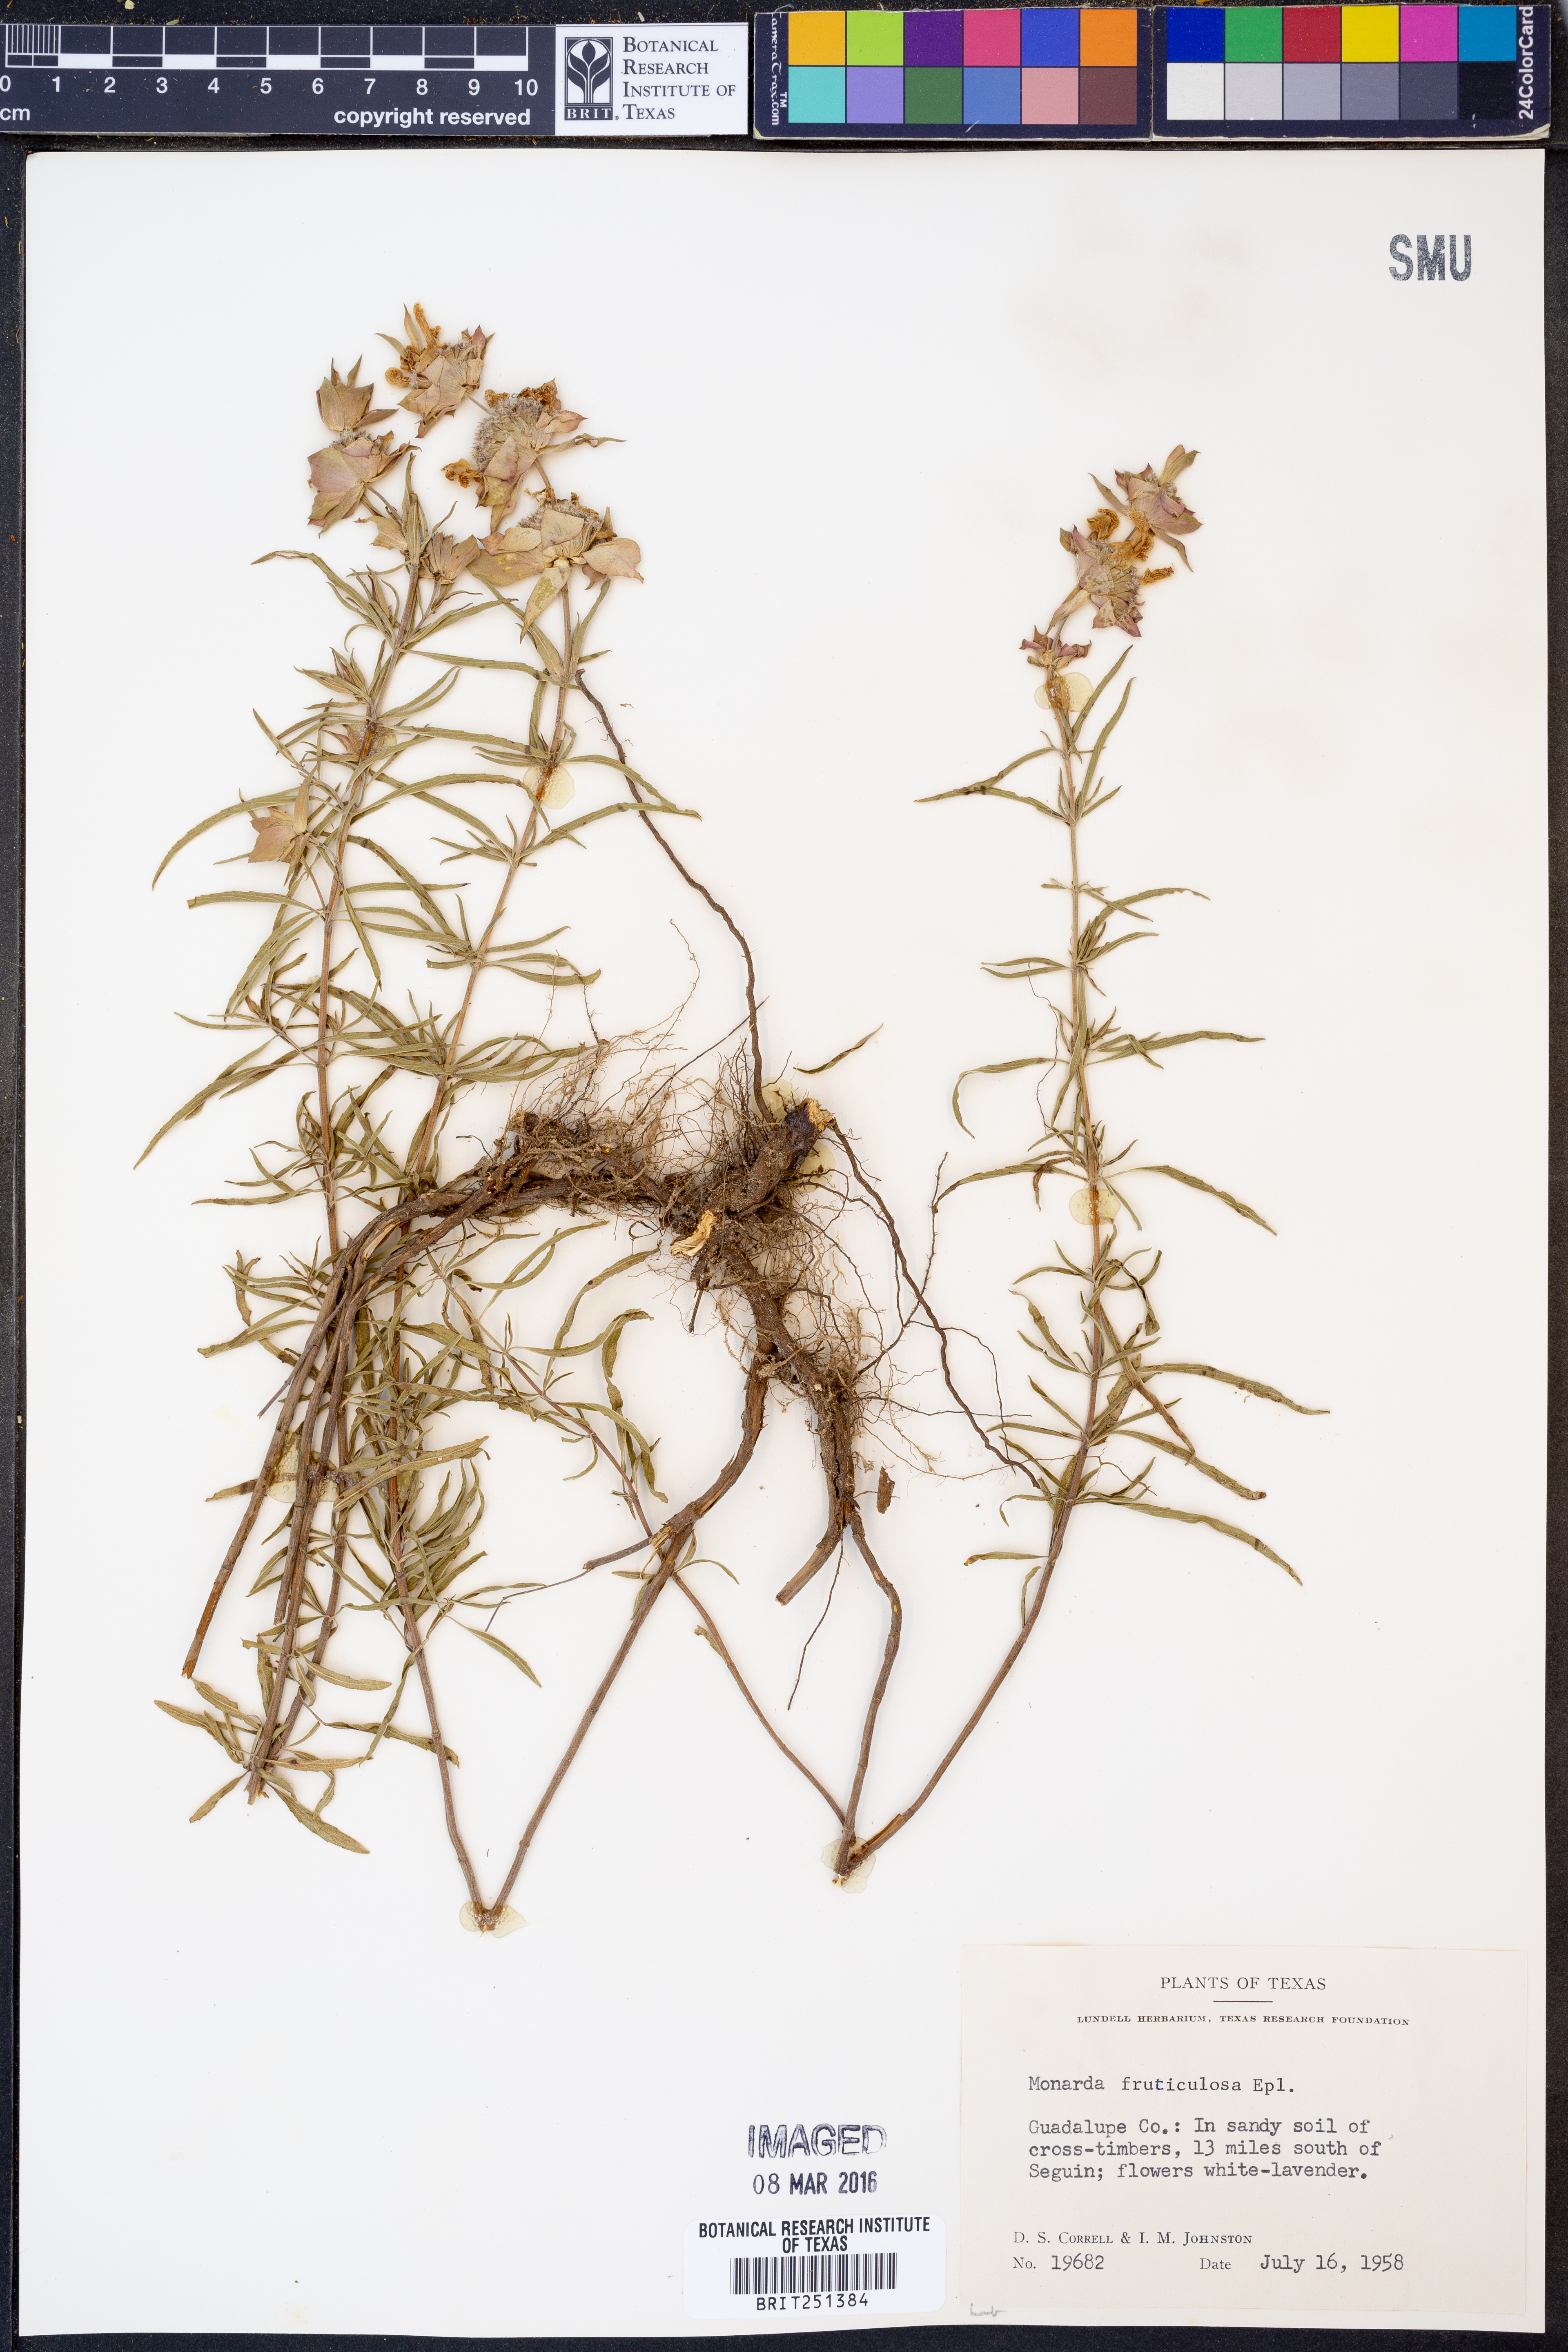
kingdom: Plantae
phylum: Tracheophyta
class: Magnoliopsida
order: Lamiales
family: Lamiaceae
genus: Monarda
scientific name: Monarda fruticulosa
